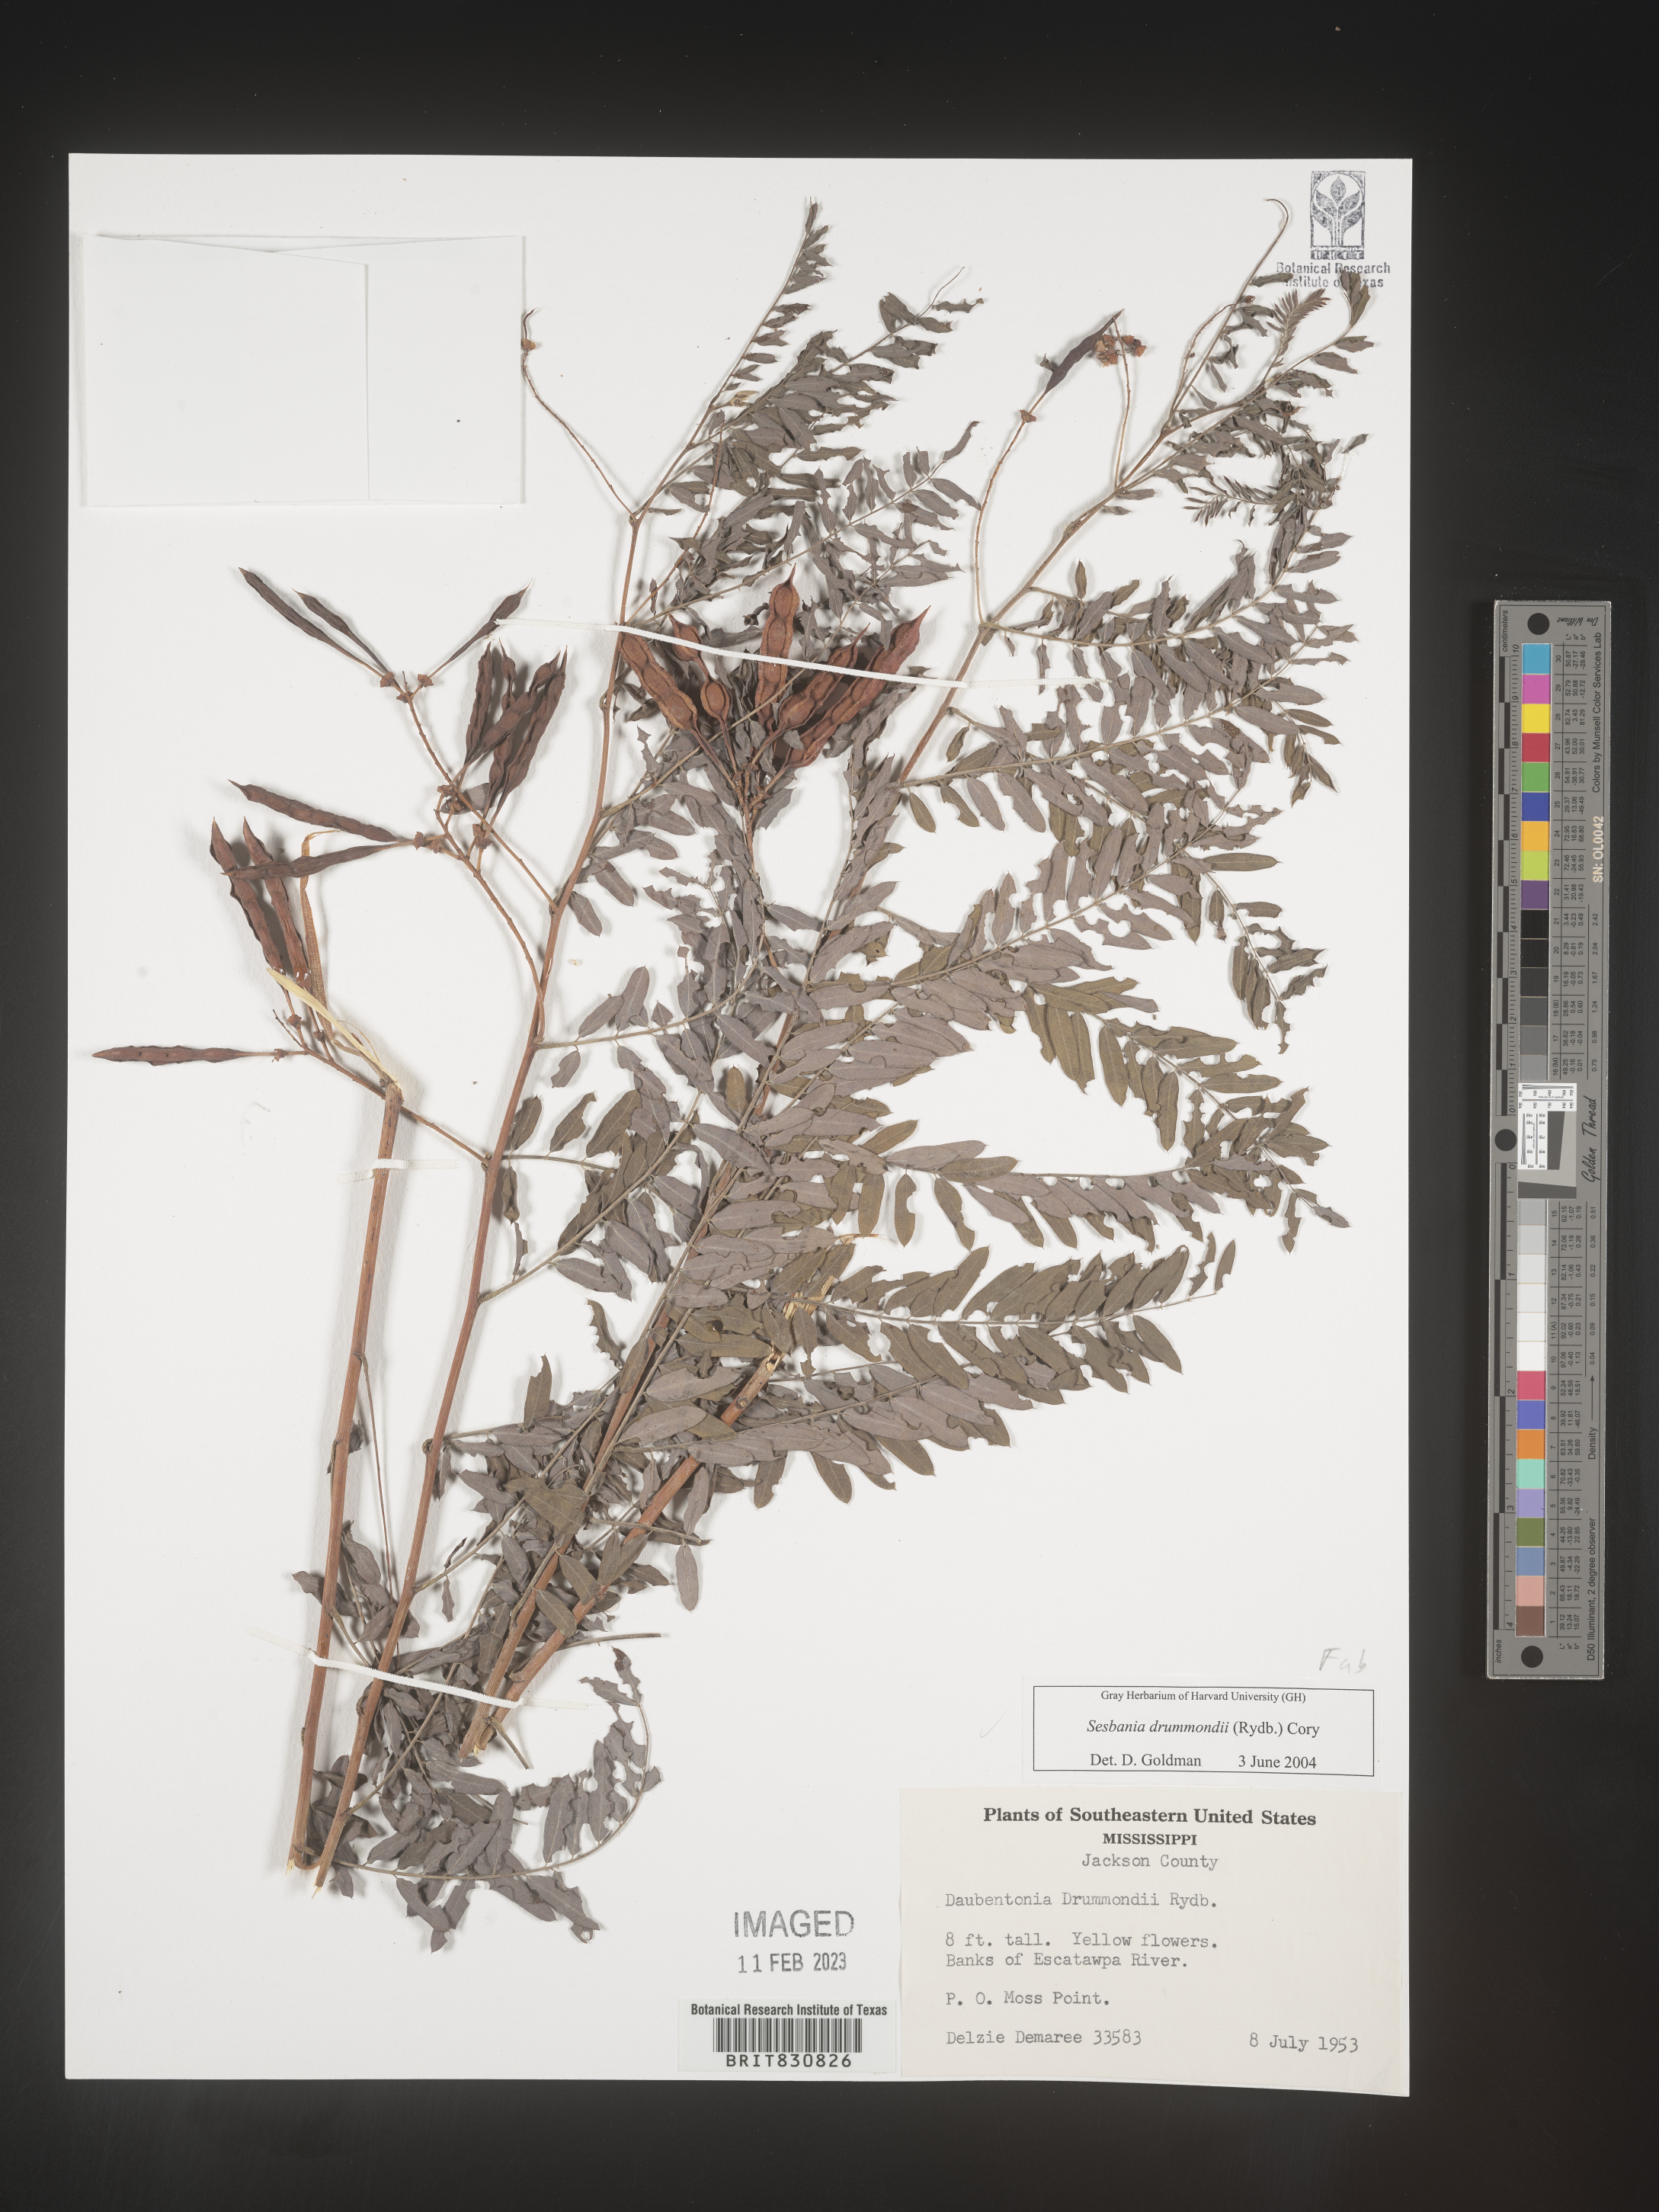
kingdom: Plantae
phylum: Tracheophyta
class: Magnoliopsida
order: Fabales
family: Fabaceae
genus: Sesbania
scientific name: Sesbania drummondii
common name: Poison-bean
